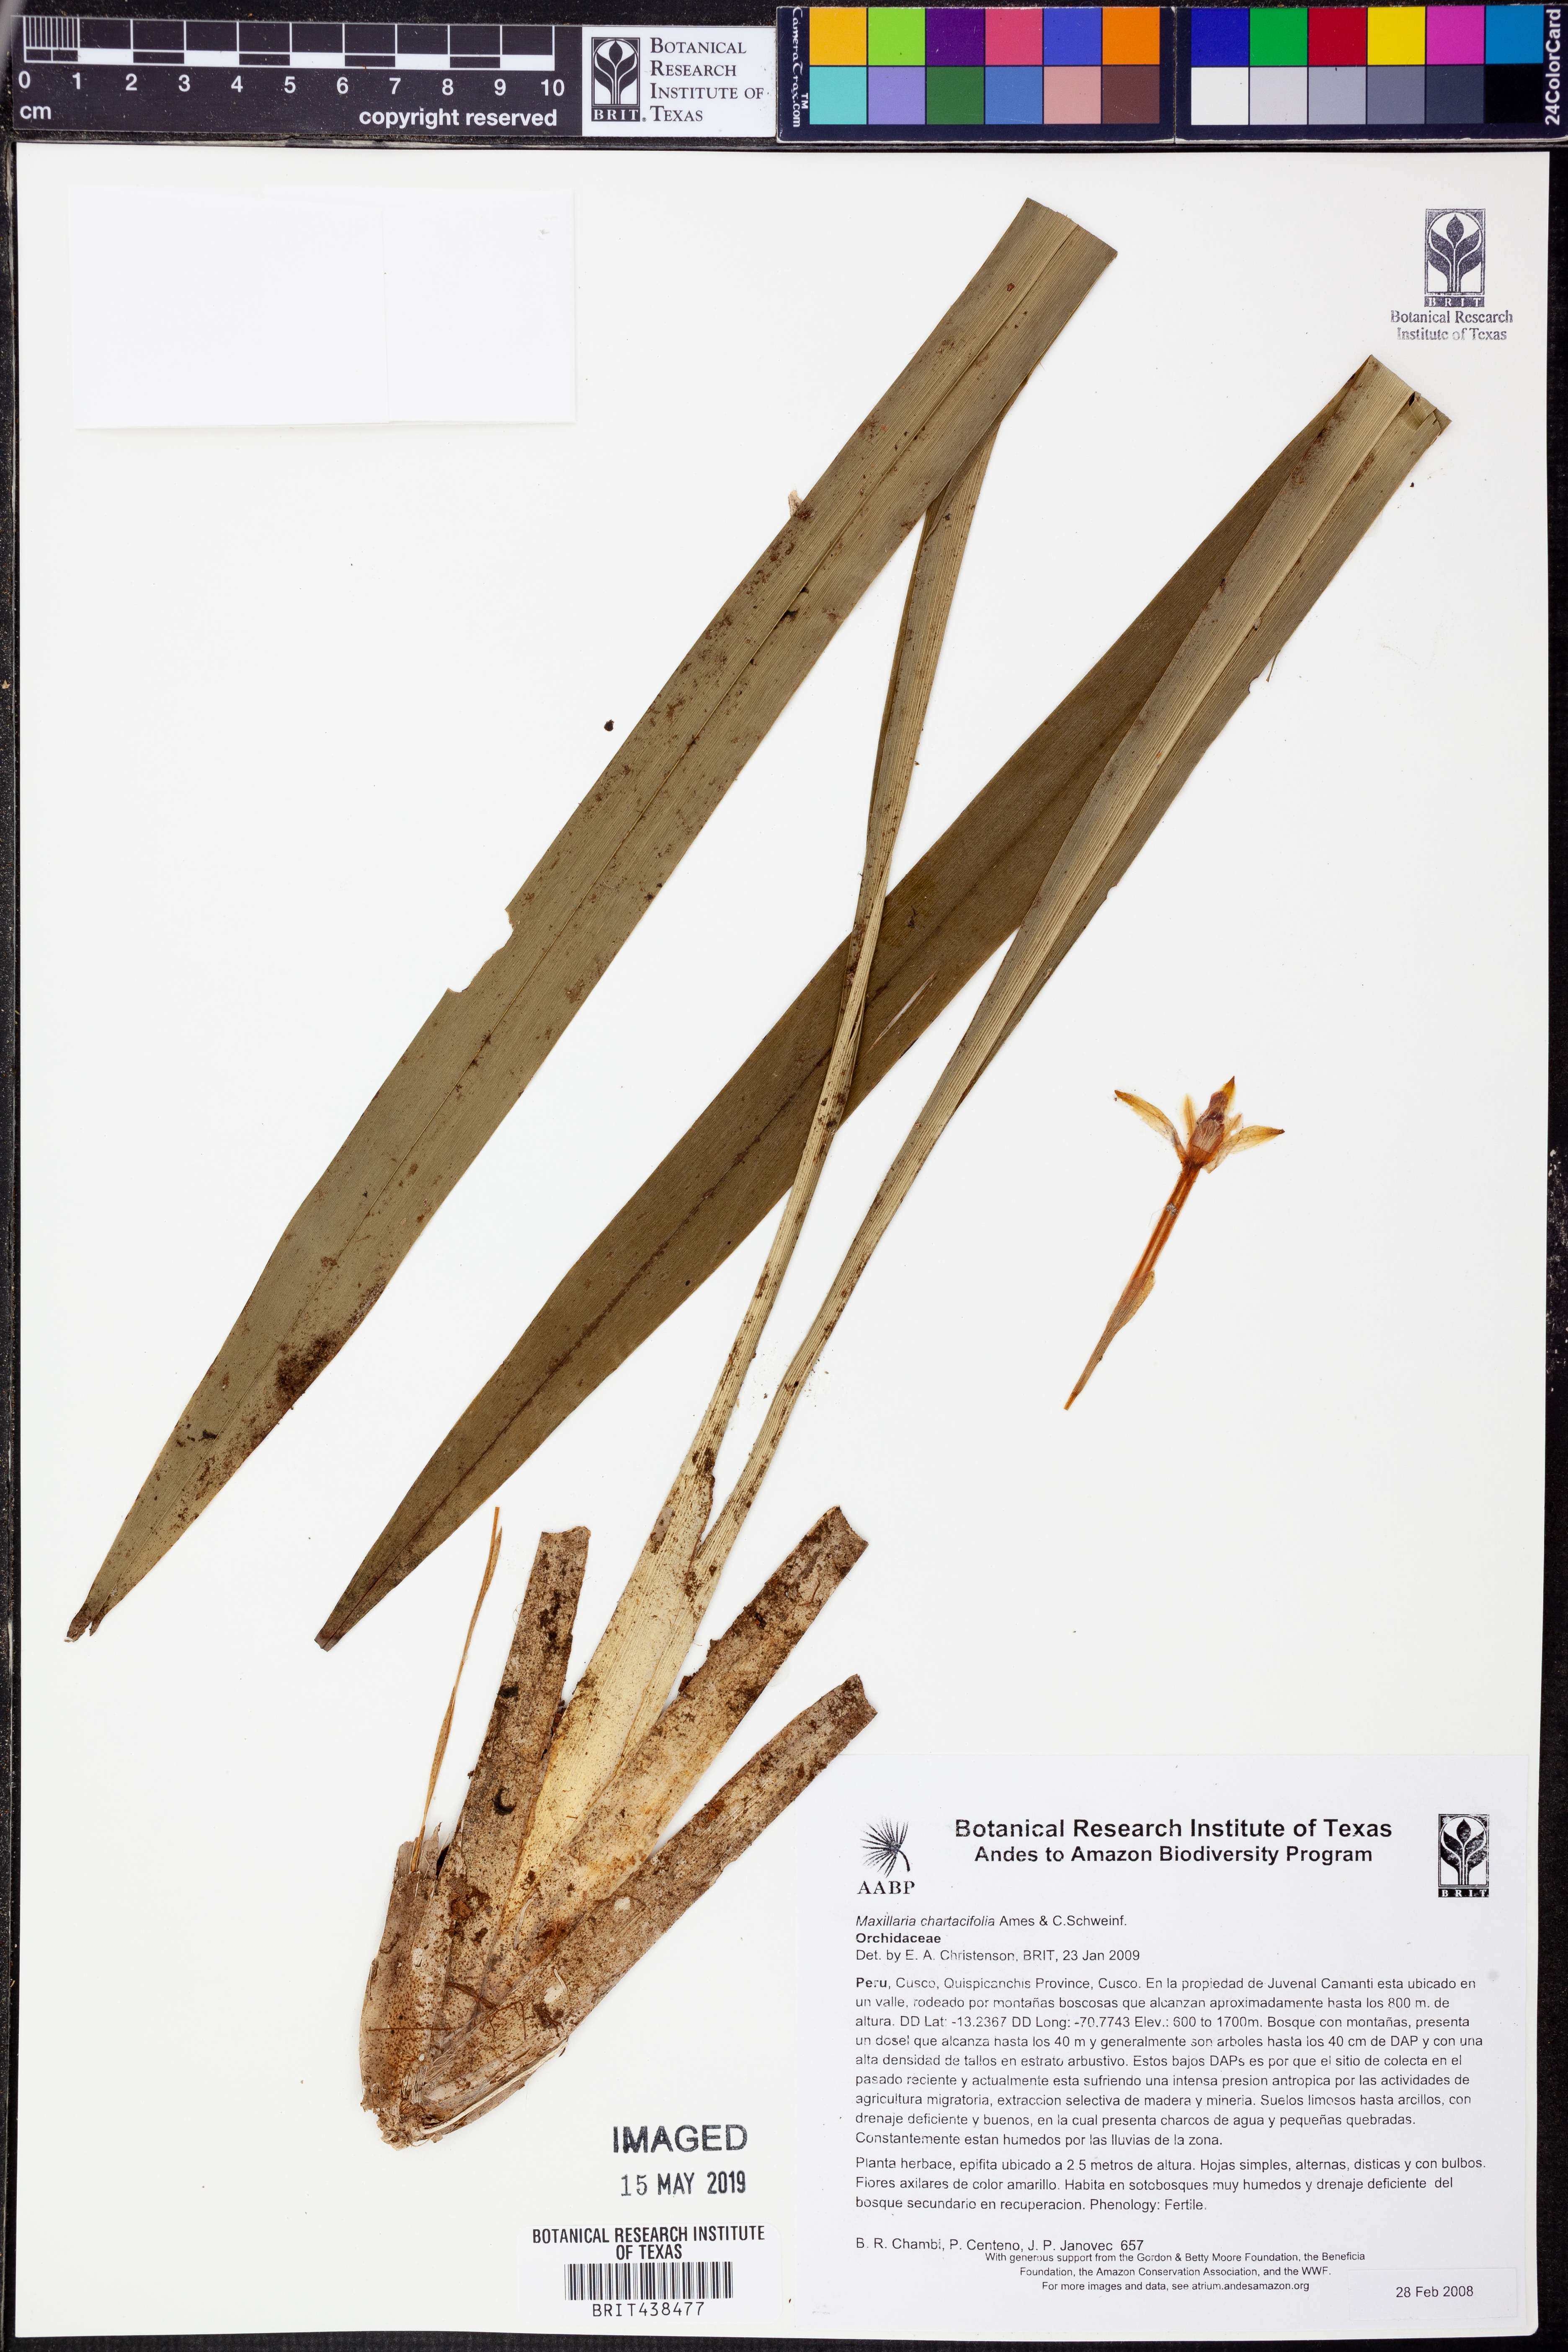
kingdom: Plantae
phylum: Tracheophyta
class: Liliopsida
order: Asparagales
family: Orchidaceae
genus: Maxillaria
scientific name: Maxillaria chartacifolia
